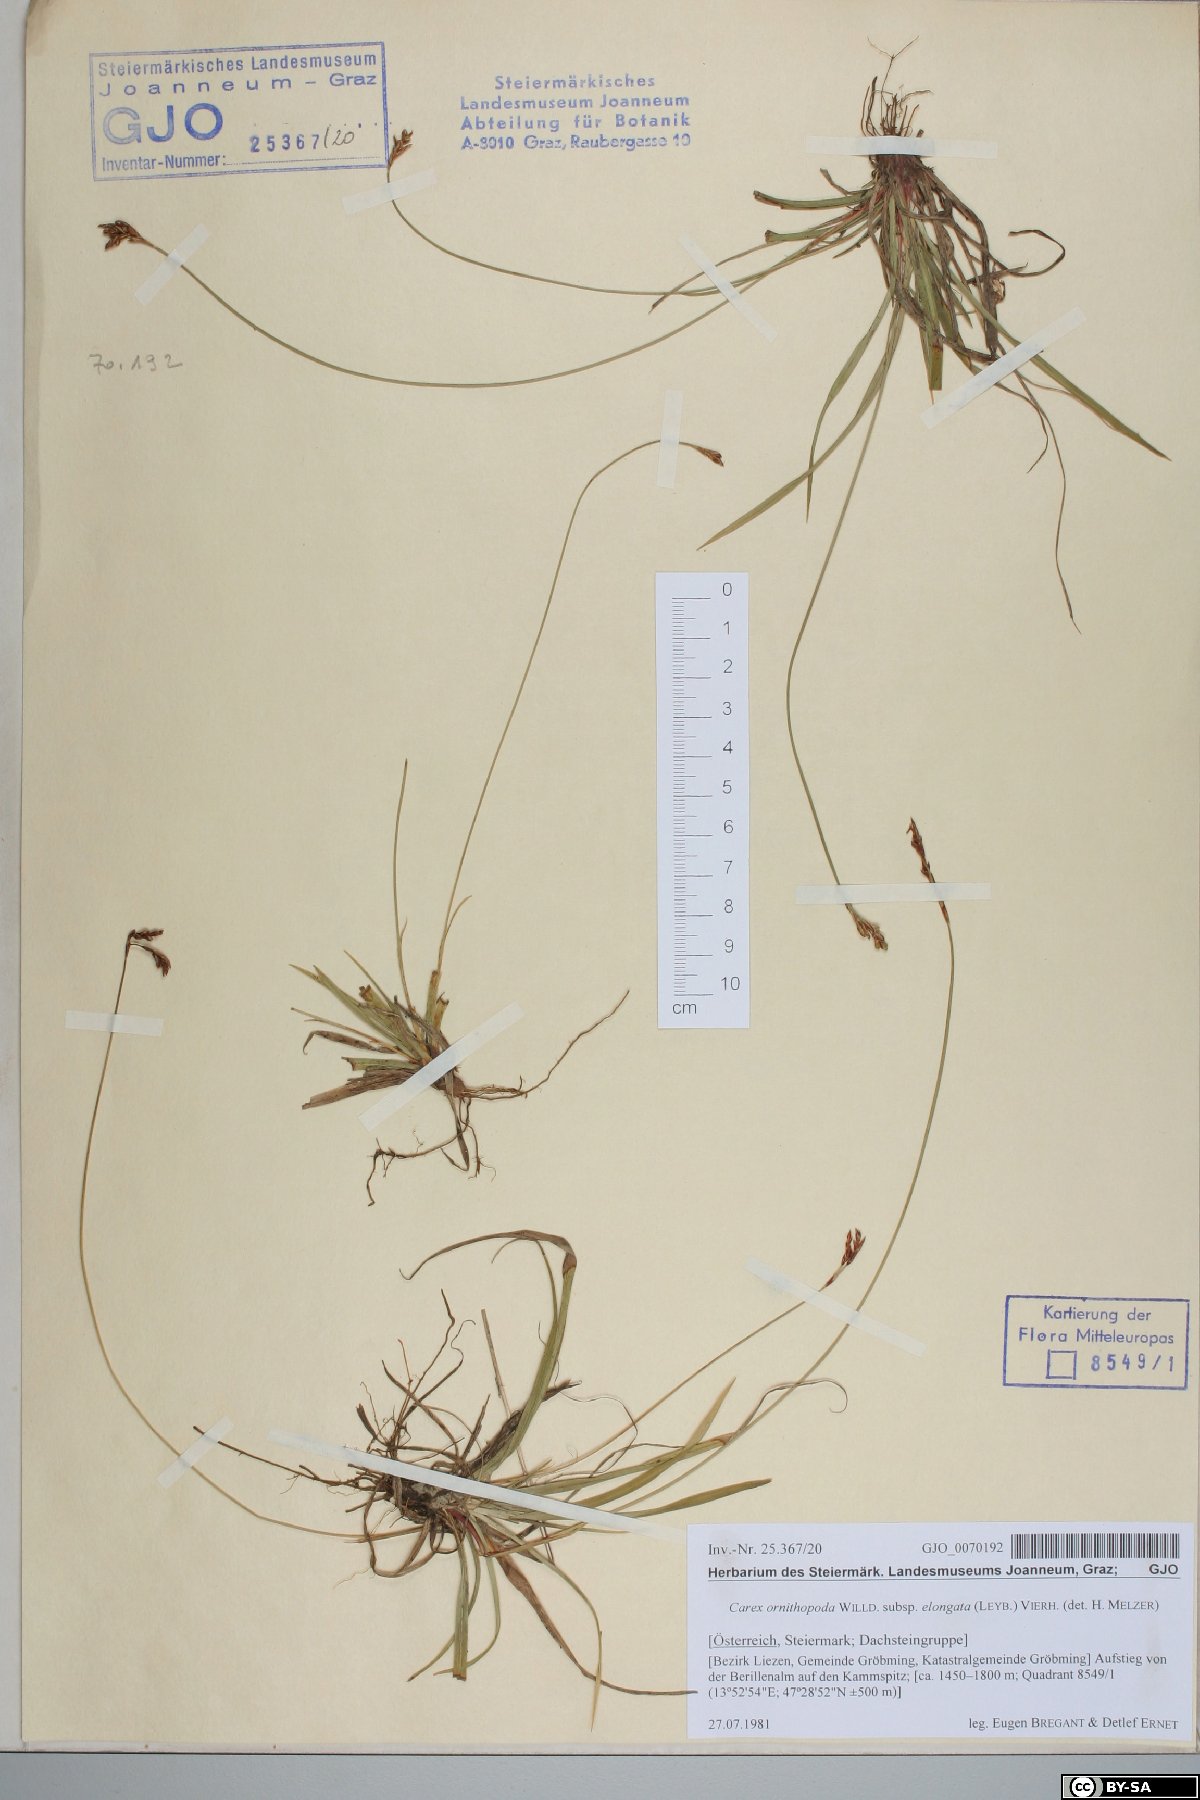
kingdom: Plantae
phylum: Tracheophyta
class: Liliopsida
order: Poales
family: Cyperaceae
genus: Carex
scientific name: Carex ornithopoda
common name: Bird's-foot sedge
